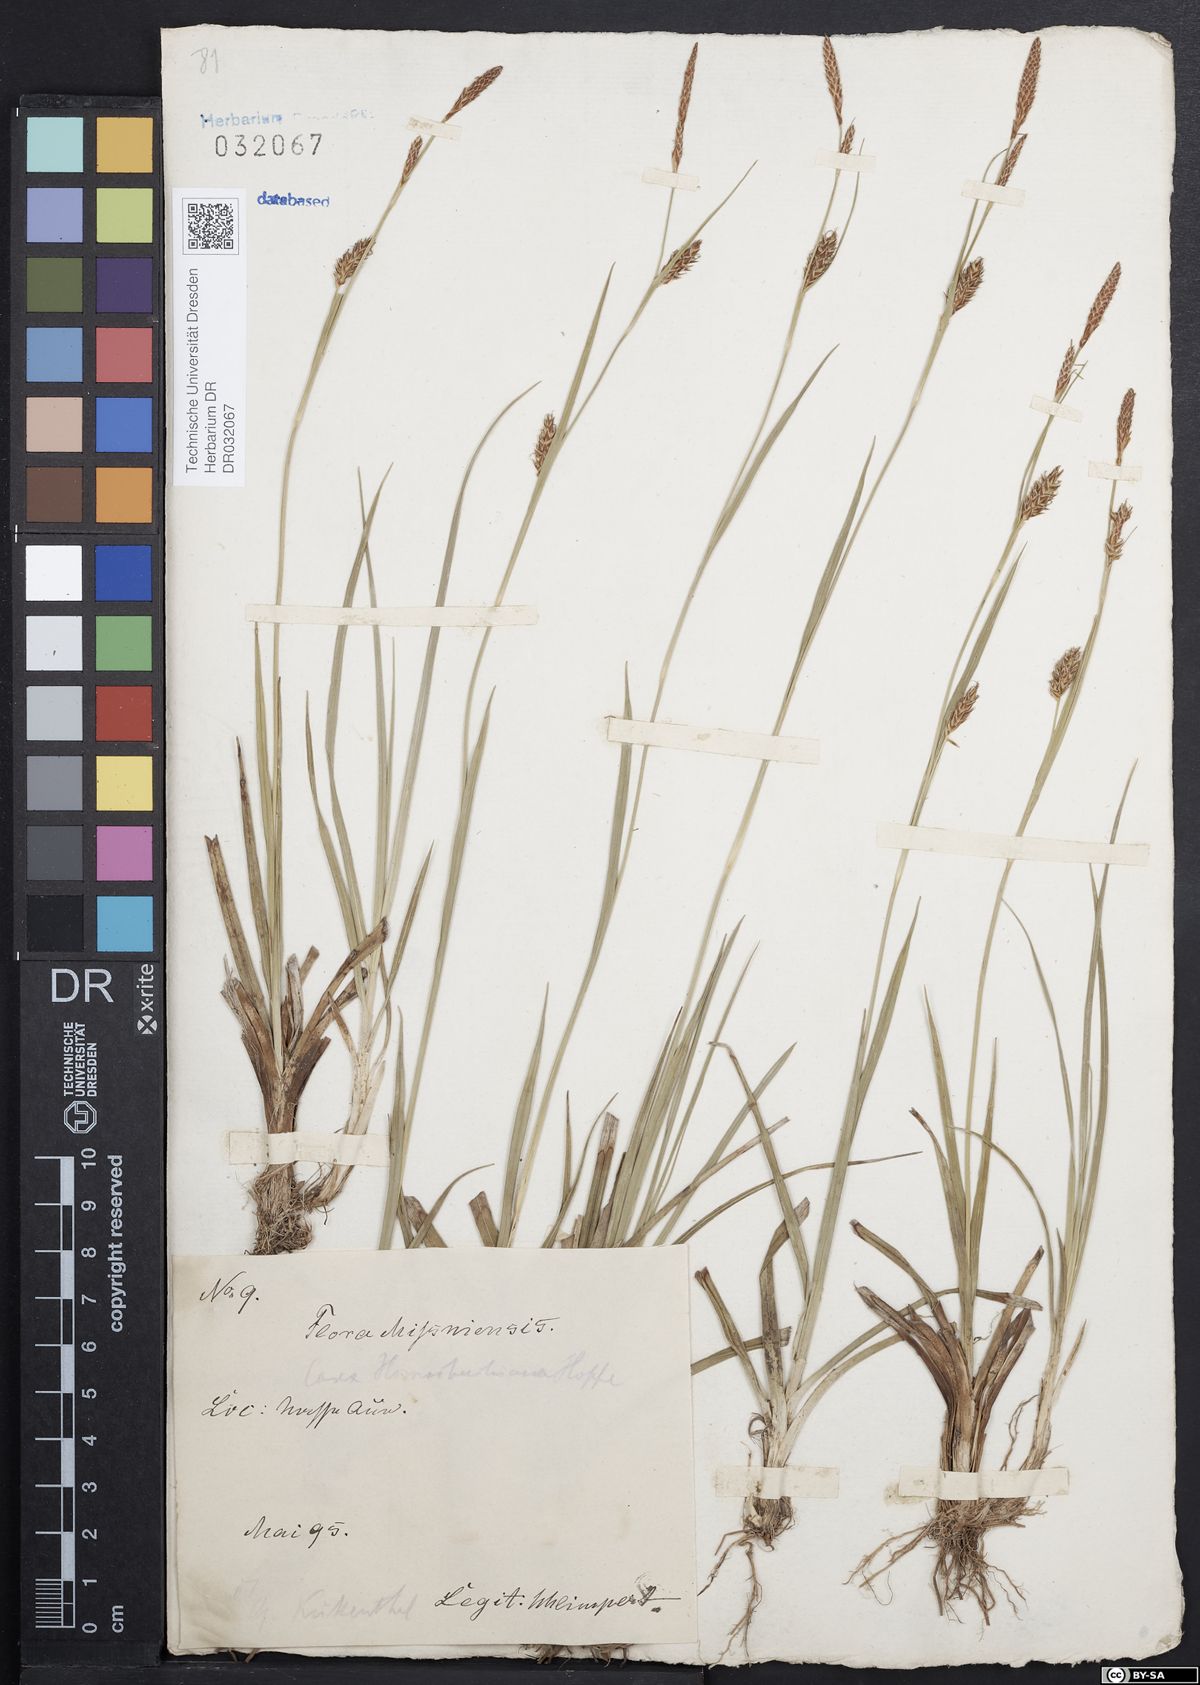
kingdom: Plantae
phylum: Tracheophyta
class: Liliopsida
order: Poales
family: Cyperaceae
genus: Carex
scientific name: Carex hostiana
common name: Tawny sedge
